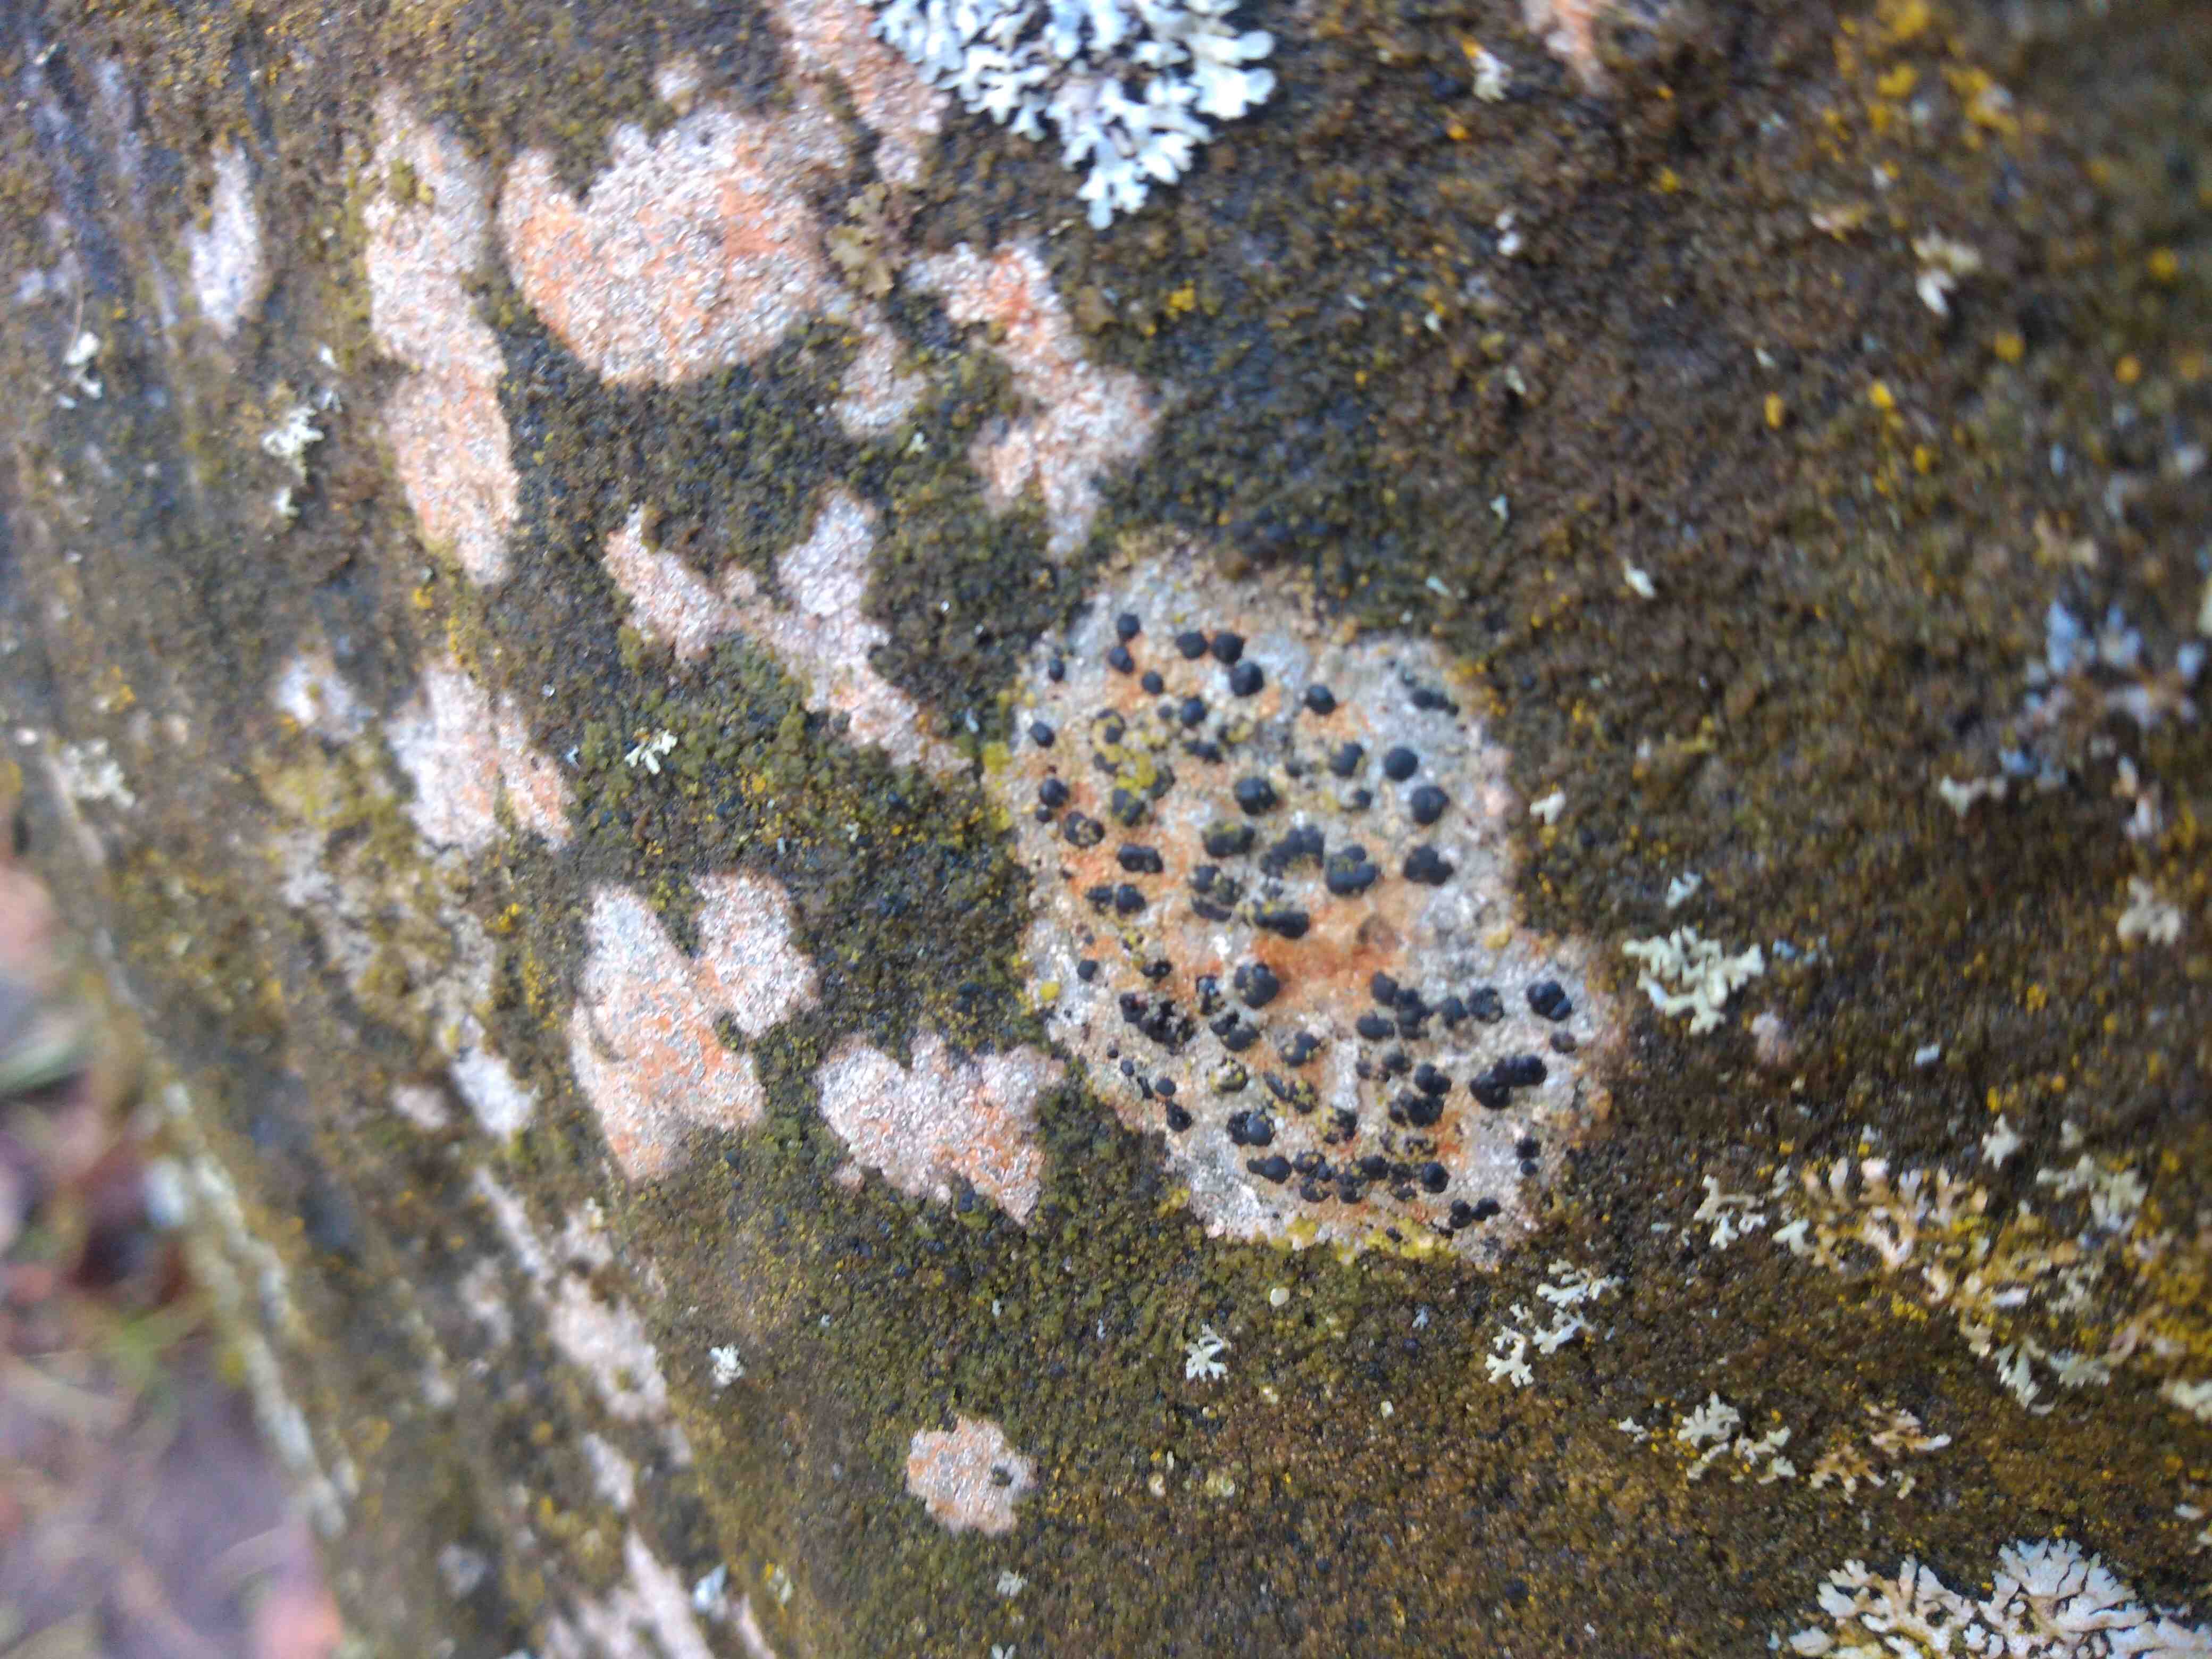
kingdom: Fungi
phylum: Ascomycota
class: Lecanoromycetes
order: Lecideales
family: Lecideaceae
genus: Lecidea
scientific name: Lecidea
